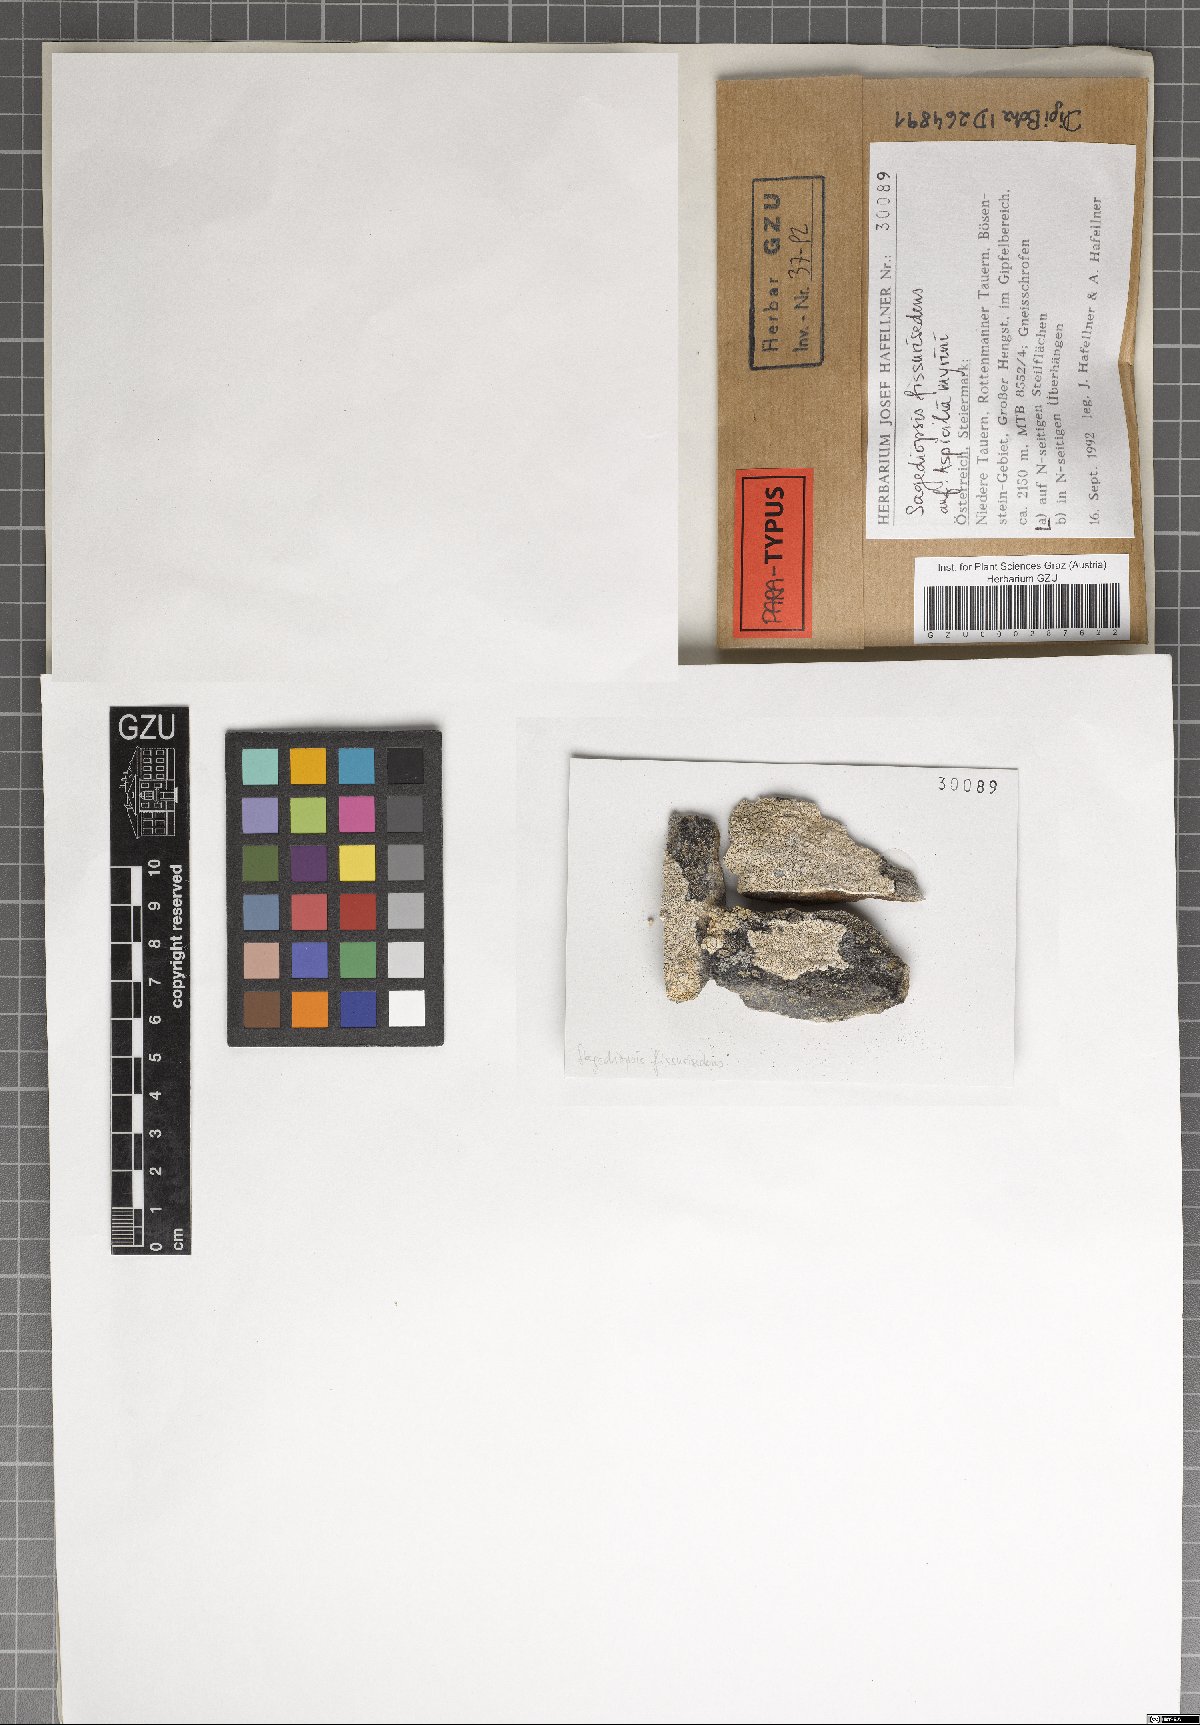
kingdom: Fungi
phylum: Ascomycota
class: Eurotiomycetes
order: Verrucariales
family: Adelococcaceae
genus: Sagediopsis
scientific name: Sagediopsis fissurisedens
